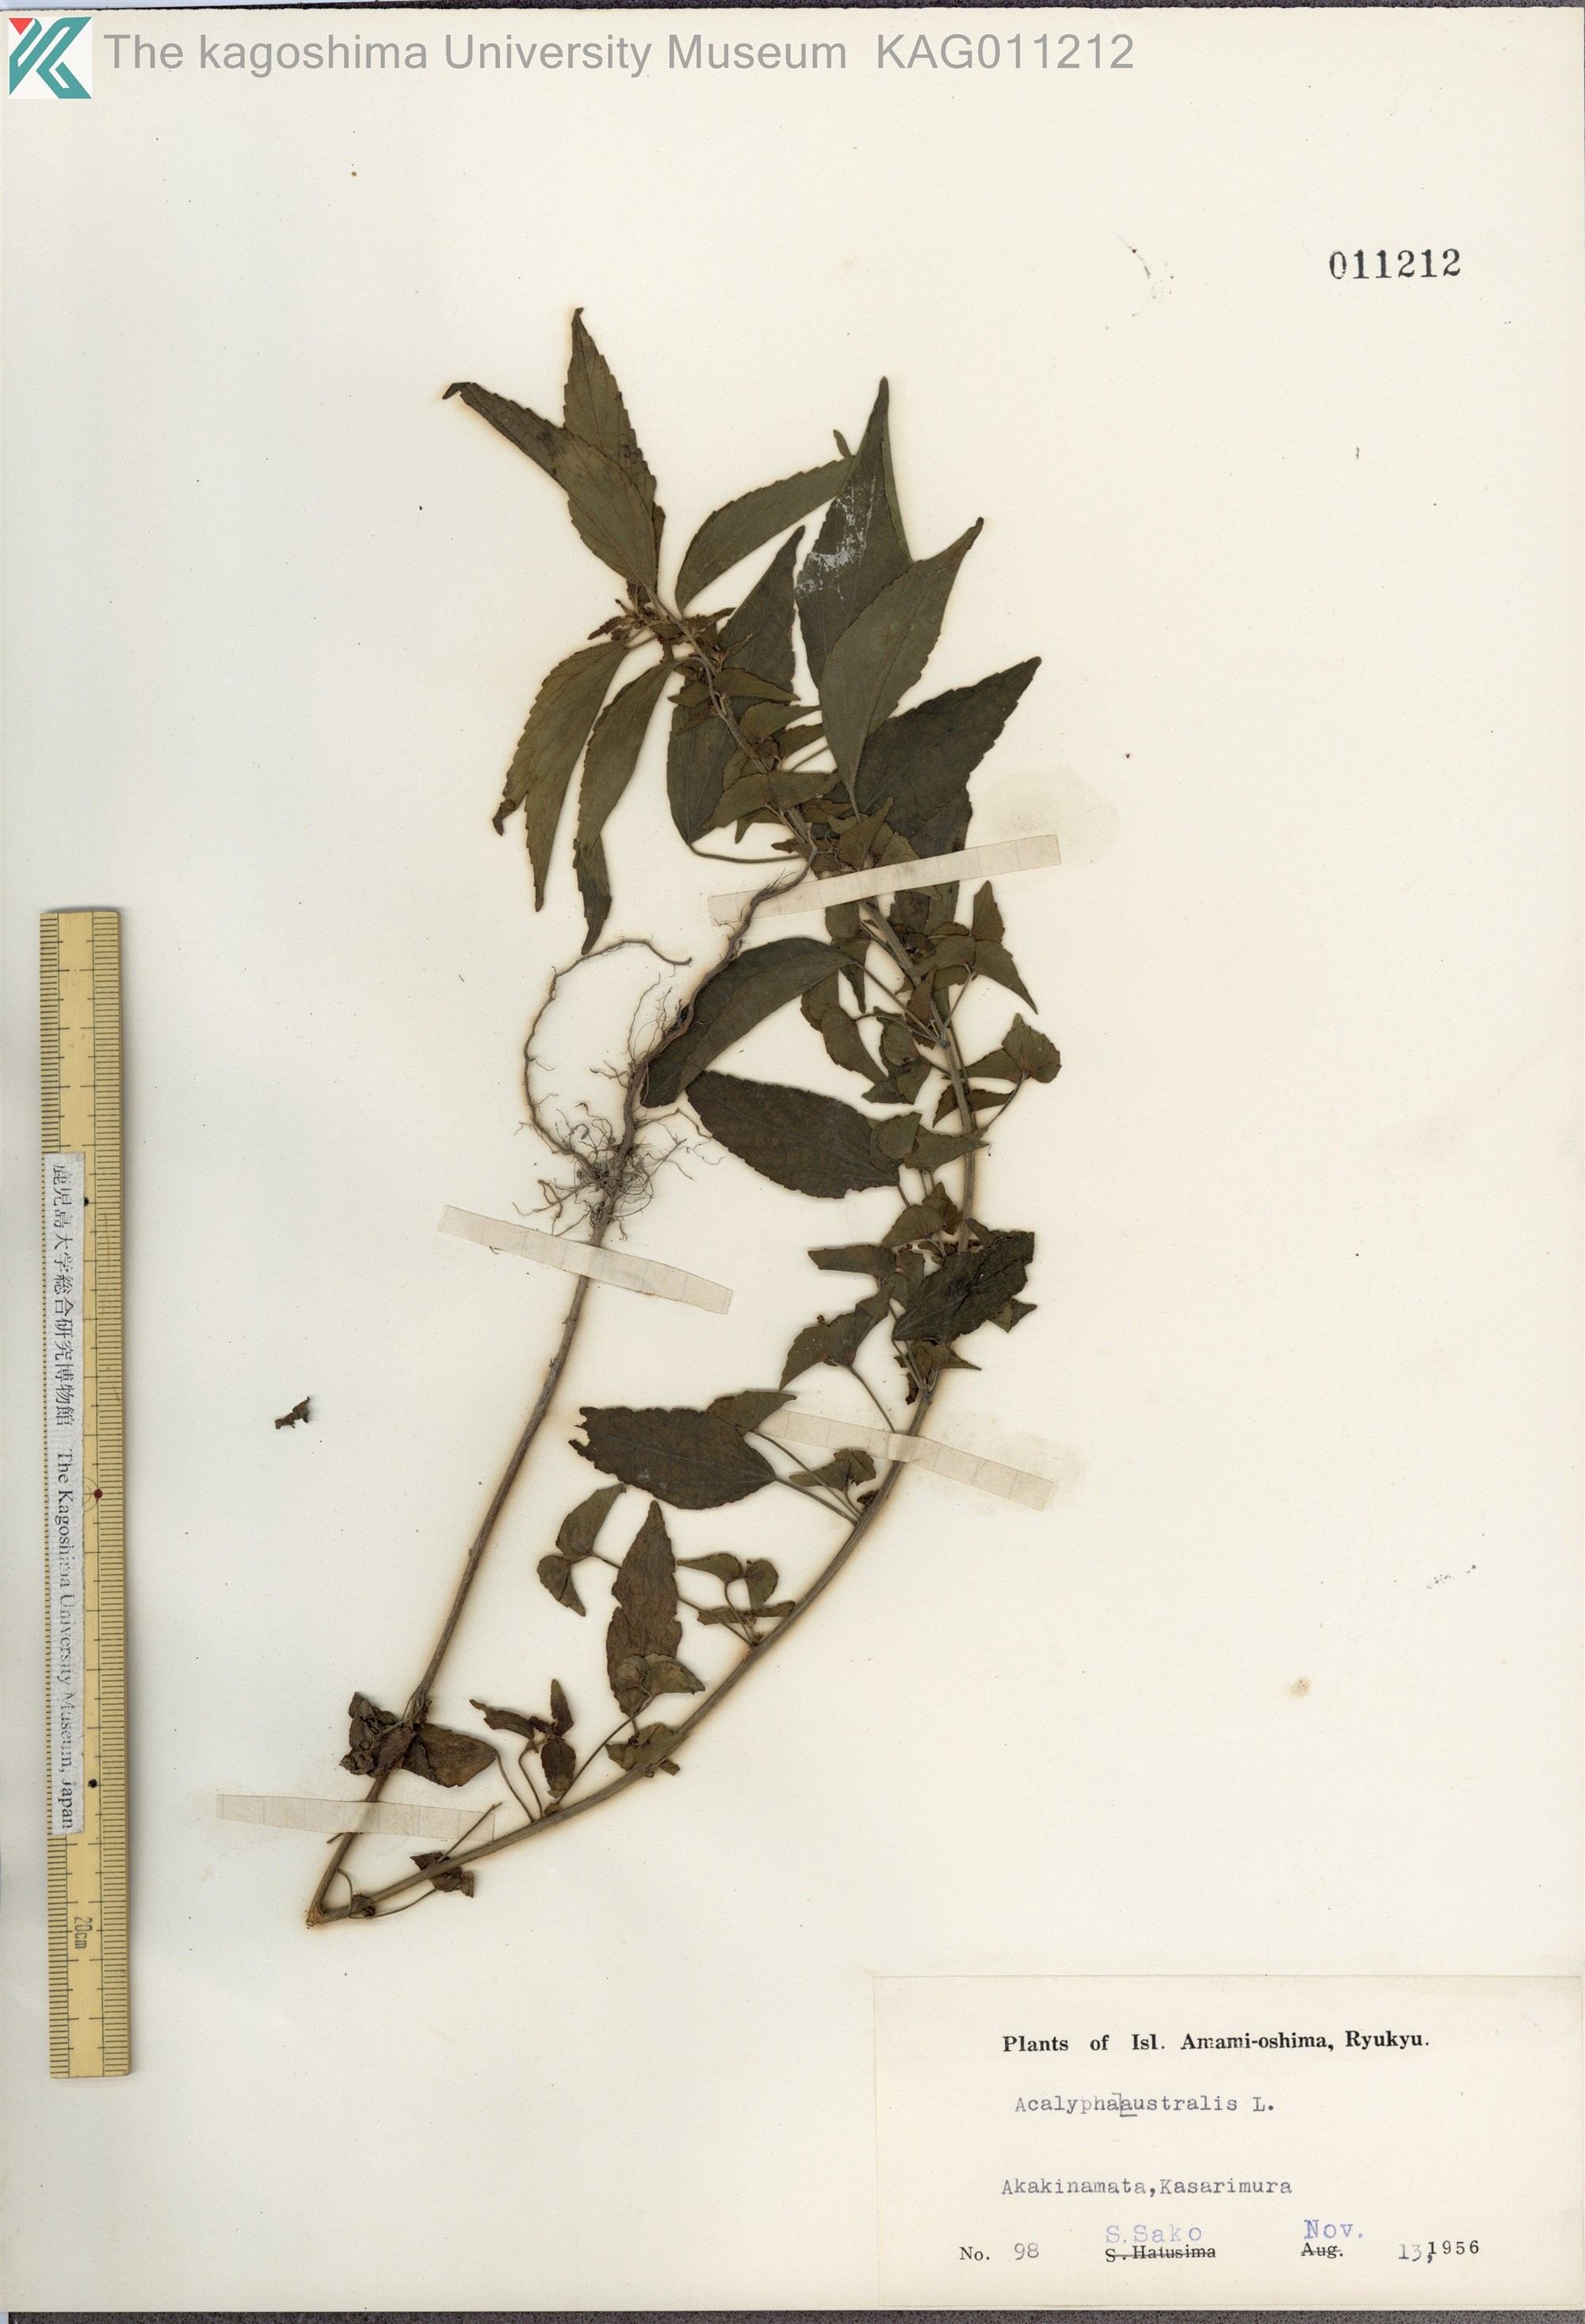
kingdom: Plantae
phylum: Tracheophyta
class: Magnoliopsida
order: Malpighiales
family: Euphorbiaceae
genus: Acalypha
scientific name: Acalypha australis
